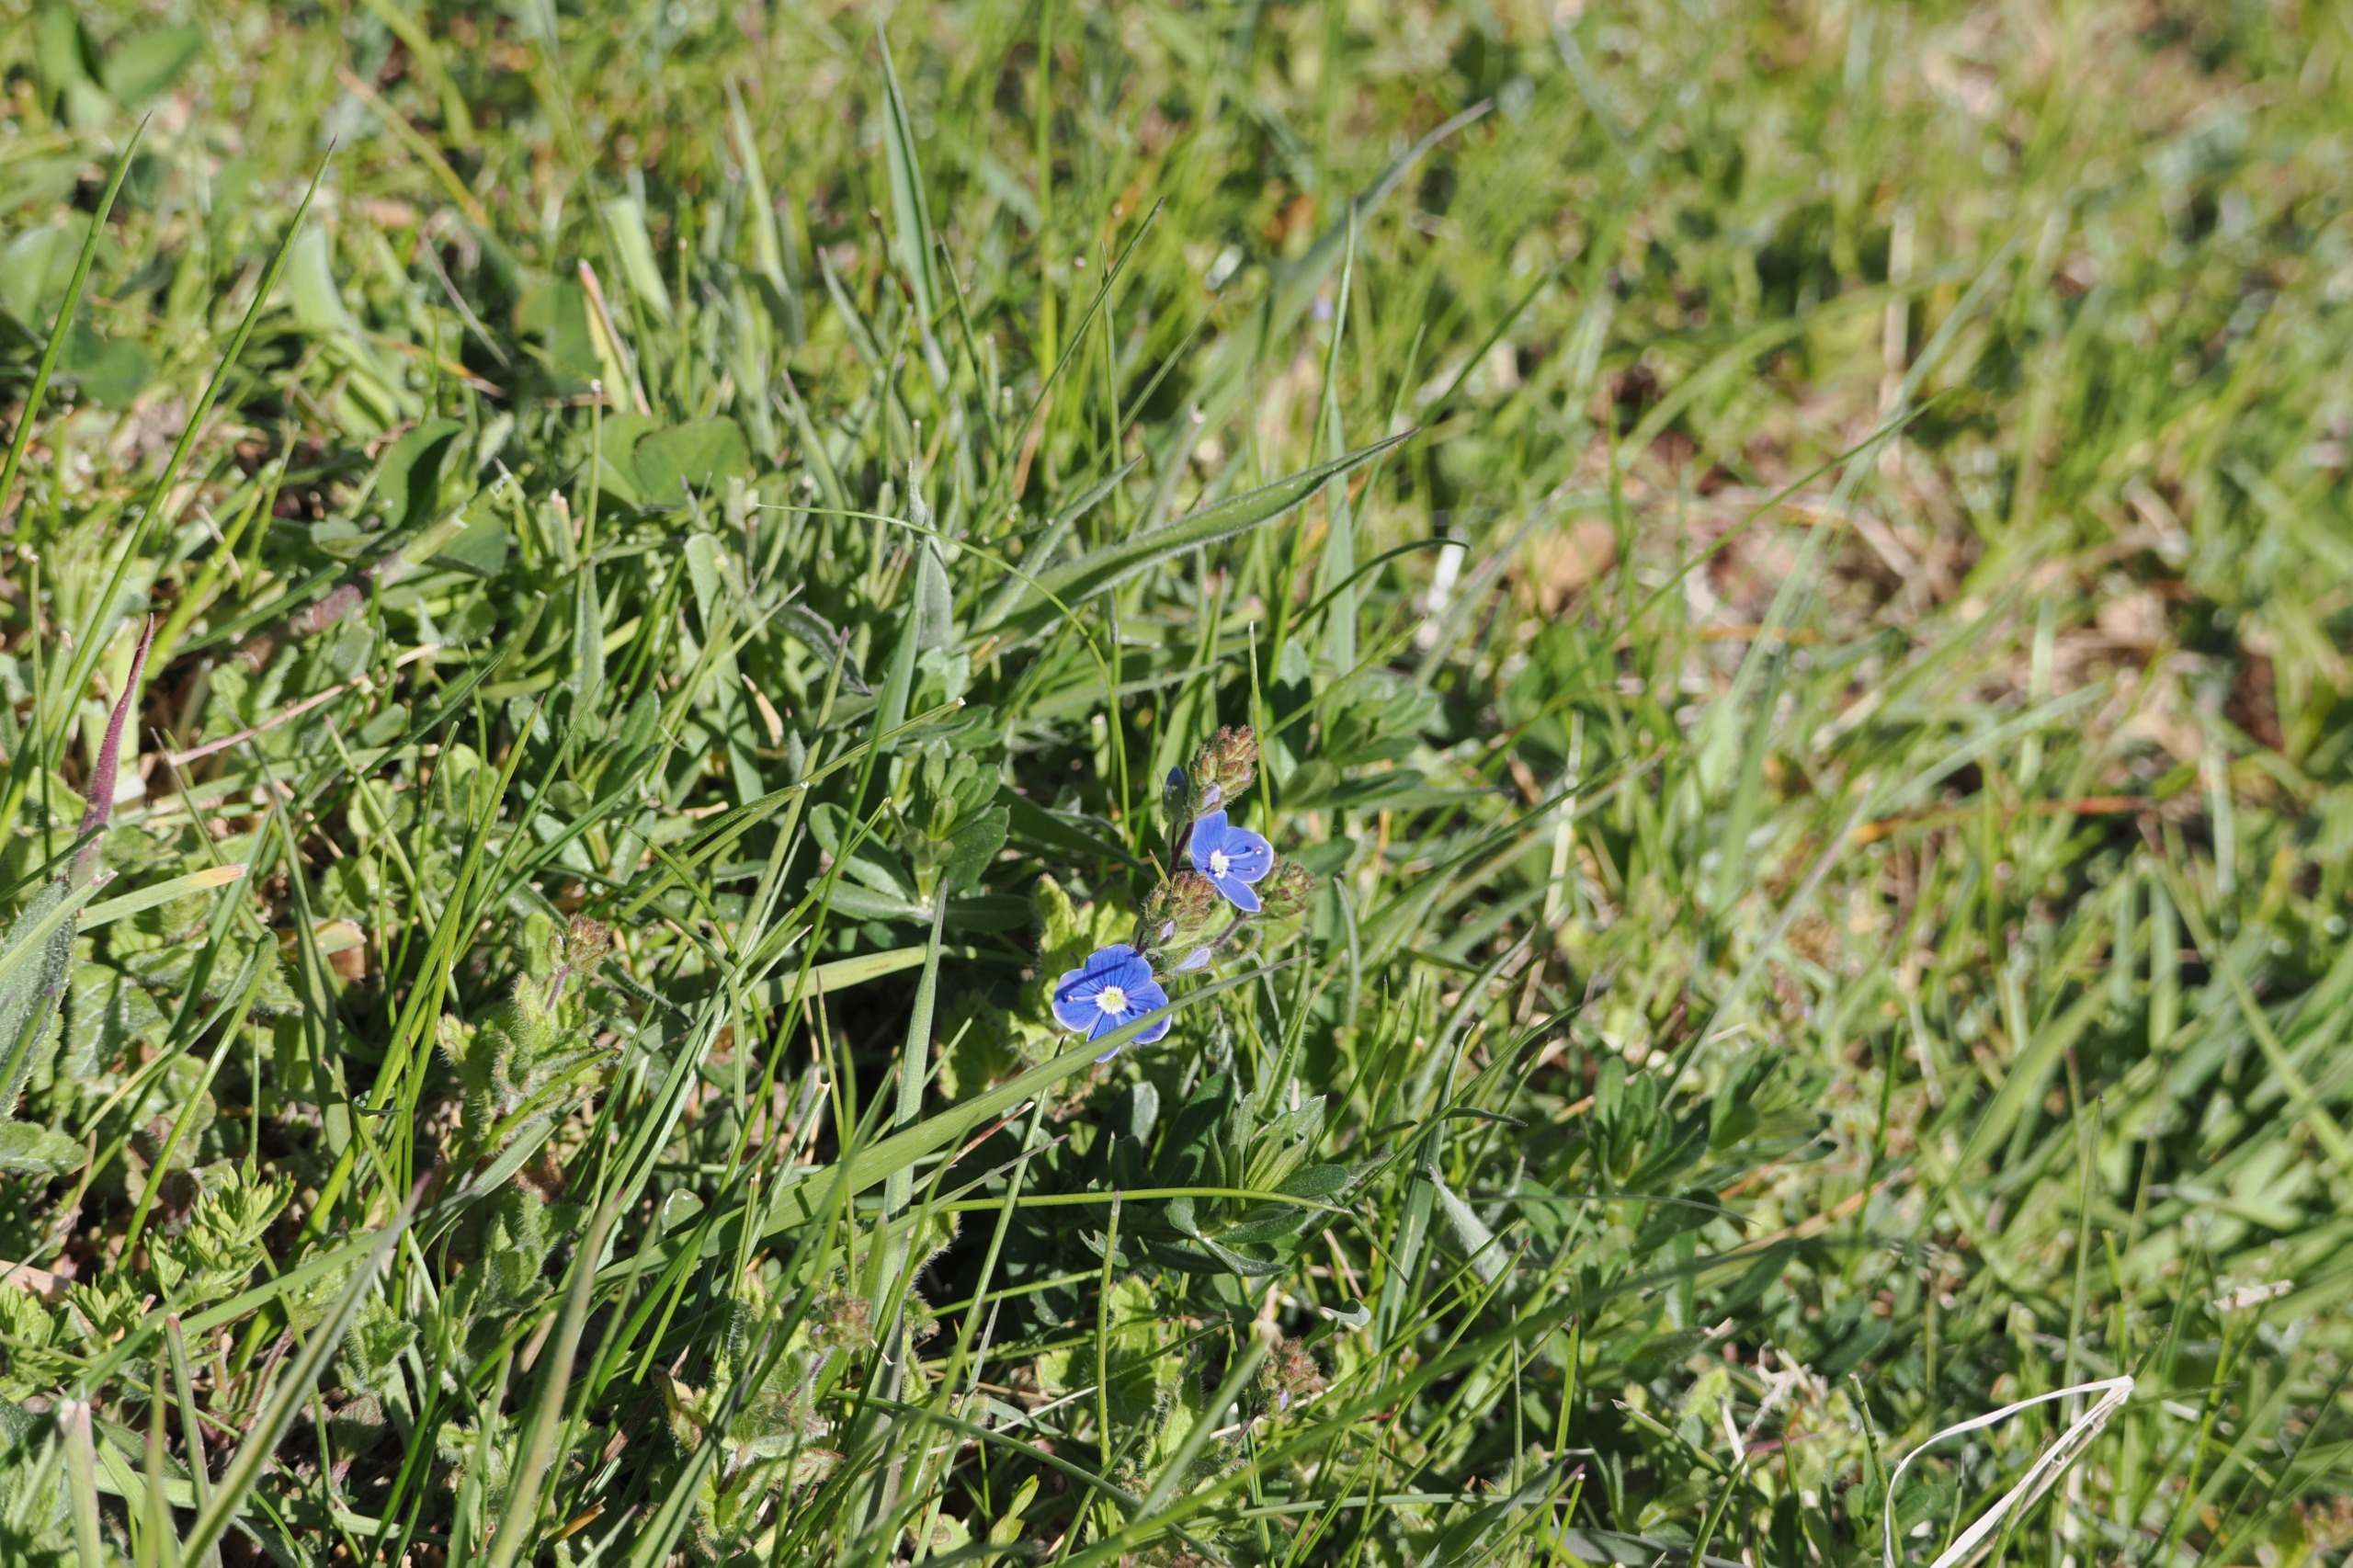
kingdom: Plantae
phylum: Tracheophyta
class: Magnoliopsida
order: Lamiales
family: Plantaginaceae
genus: Veronica
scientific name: Veronica chamaedrys
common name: Tveskægget ærenpris
